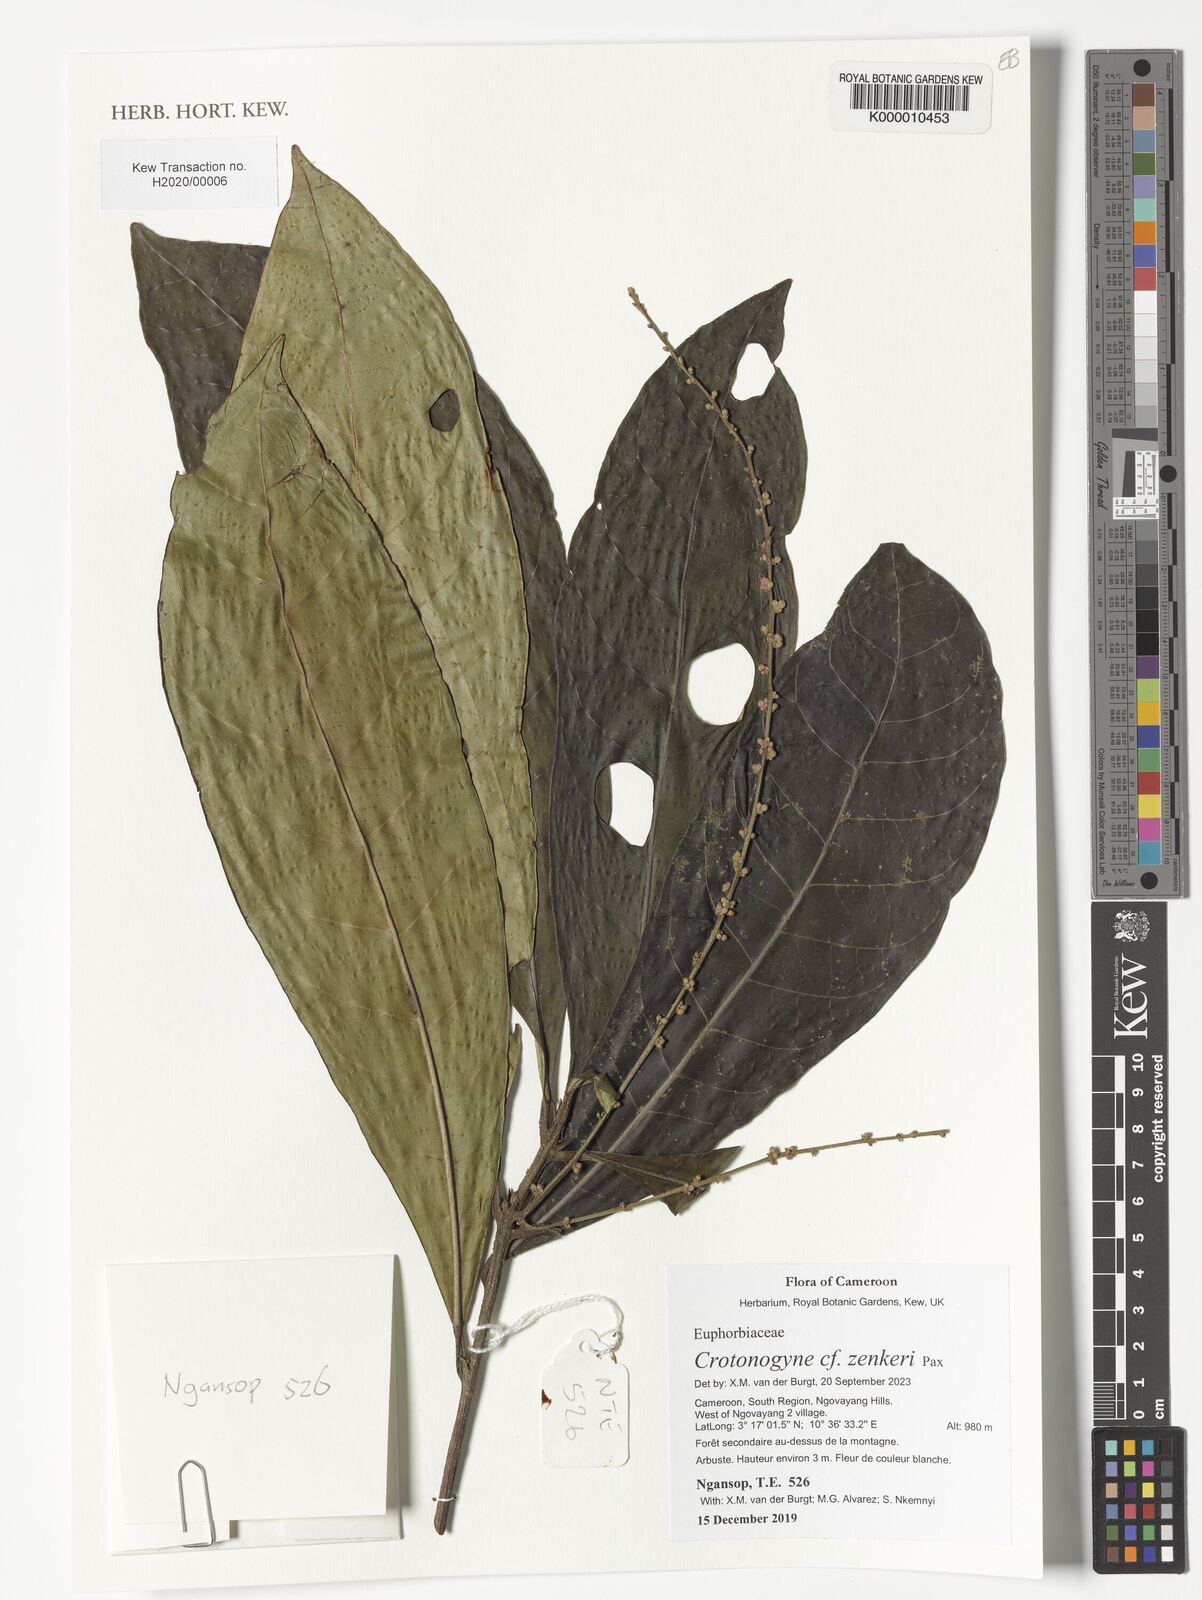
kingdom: Plantae
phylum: Tracheophyta
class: Magnoliopsida
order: Malpighiales
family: Euphorbiaceae
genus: Crotonogyne
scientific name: Crotonogyne zenkeri
